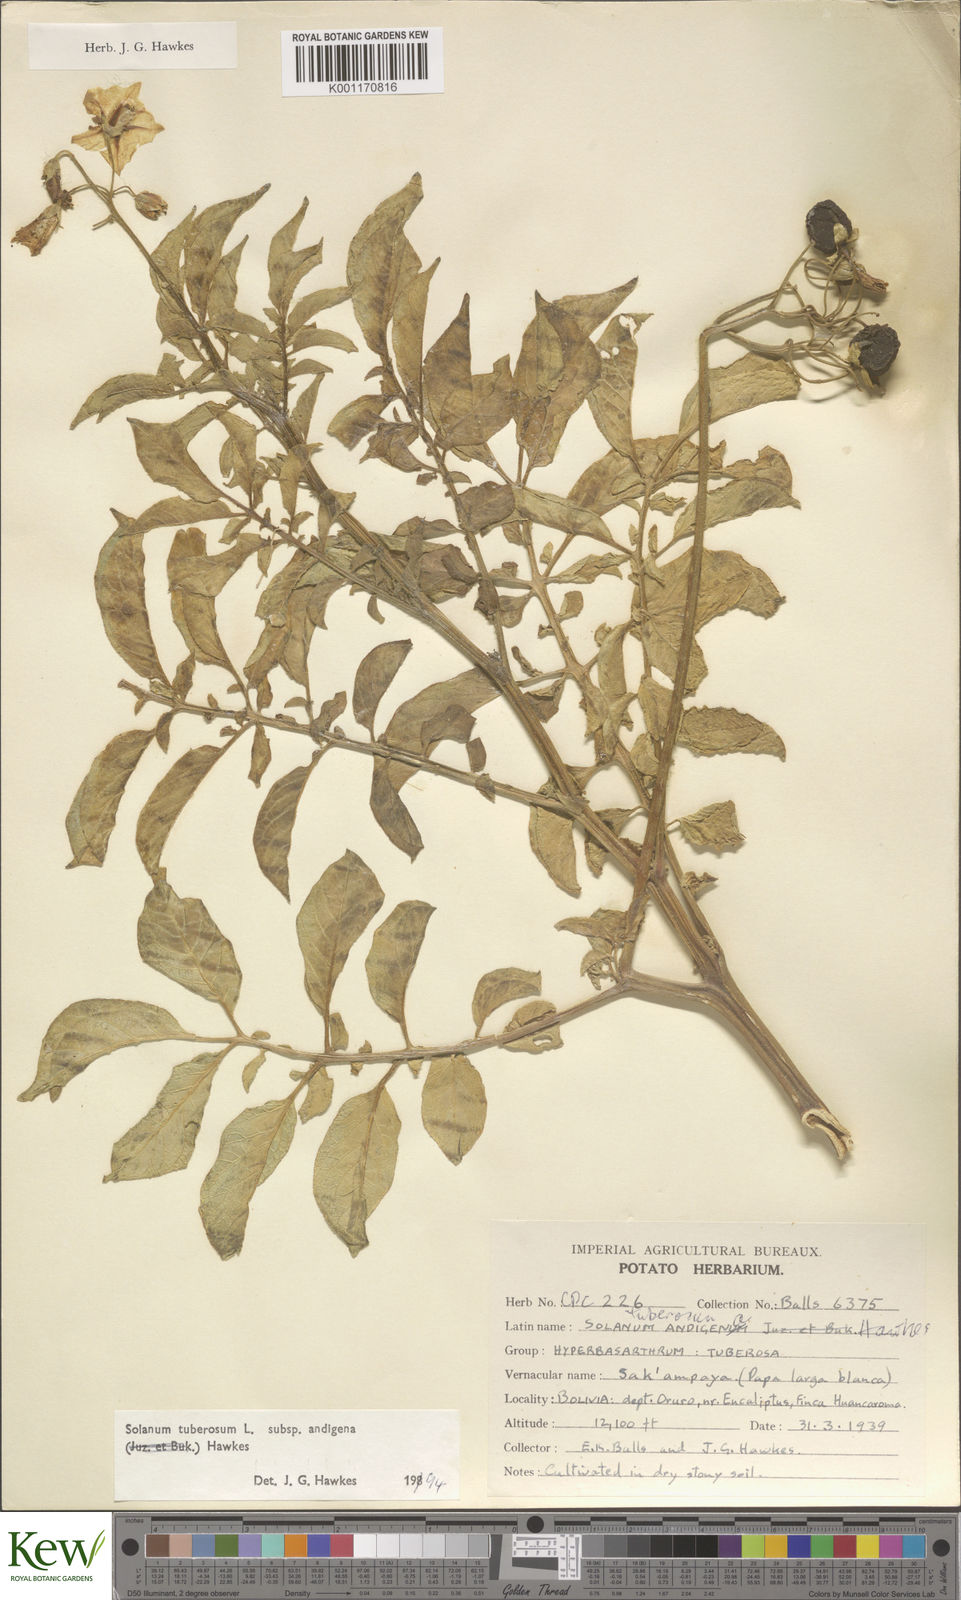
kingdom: Plantae
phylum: Tracheophyta
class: Magnoliopsida
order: Solanales
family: Solanaceae
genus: Solanum
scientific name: Solanum tuberosum
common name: Potato
